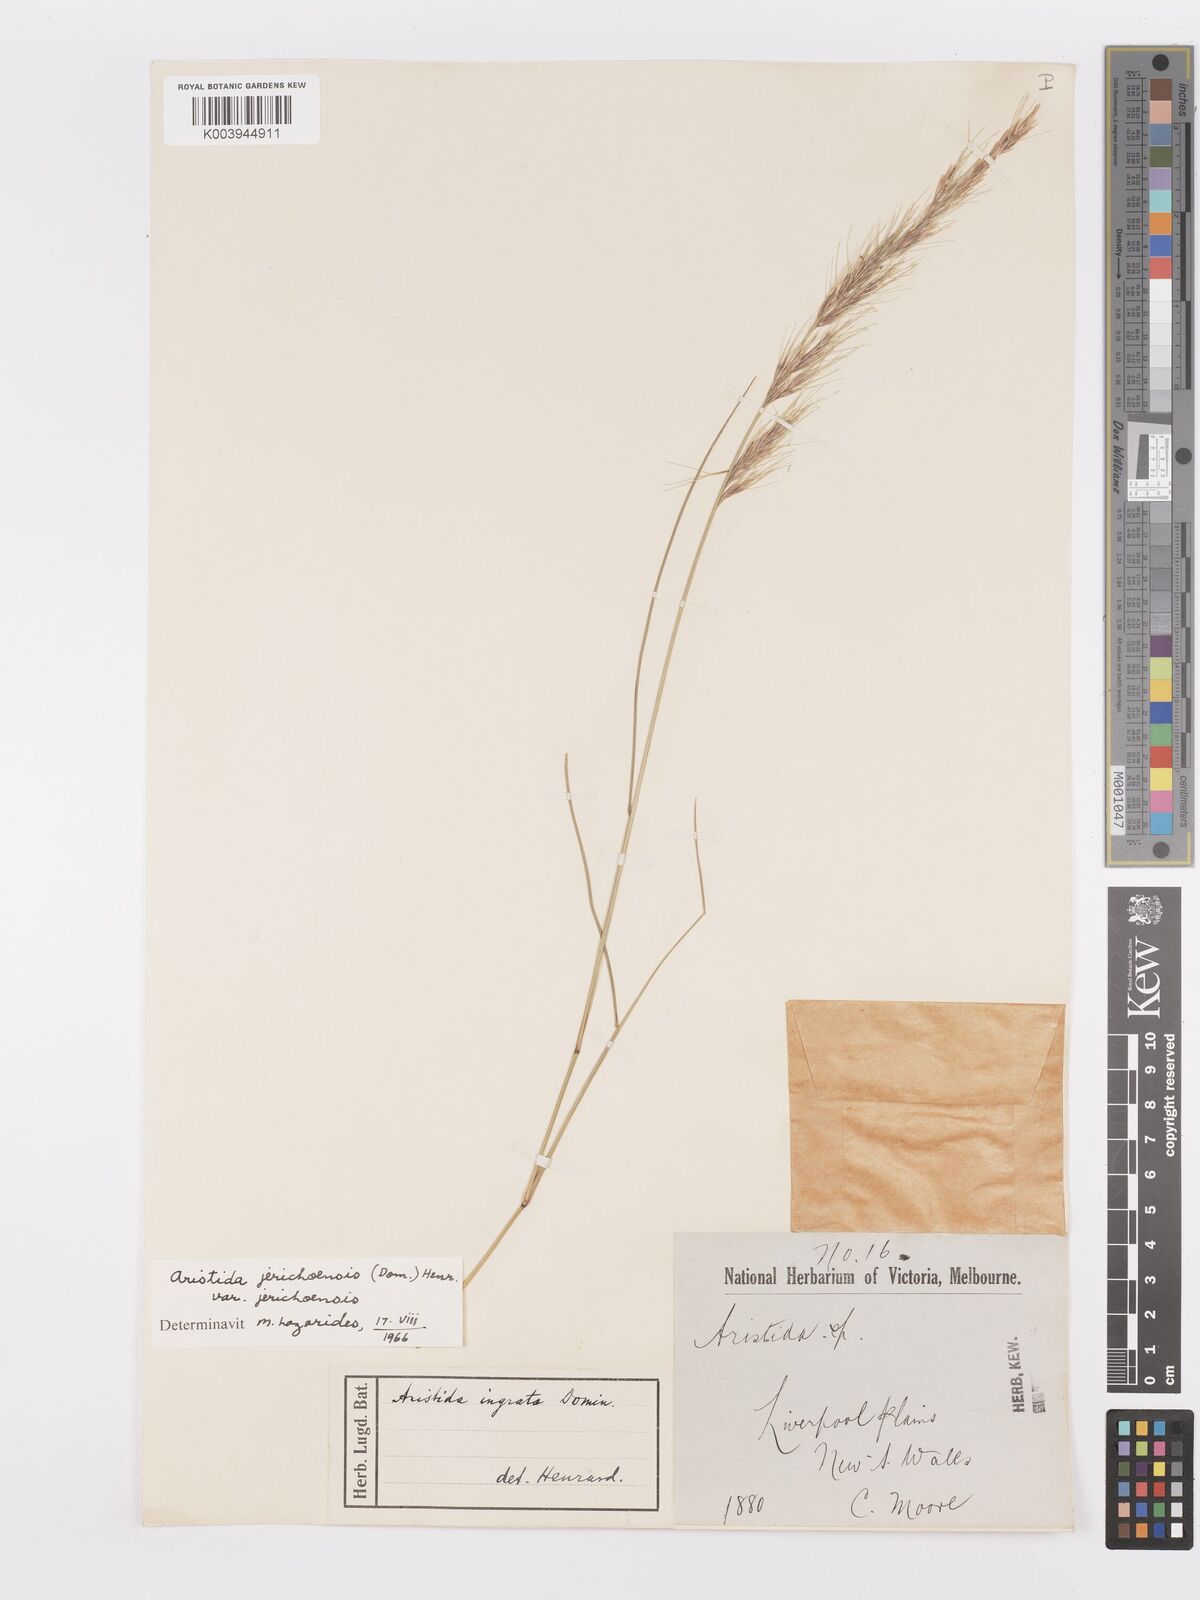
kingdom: Plantae
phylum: Tracheophyta
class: Liliopsida
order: Poales
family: Poaceae
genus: Aristida
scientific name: Aristida jerichoensis
